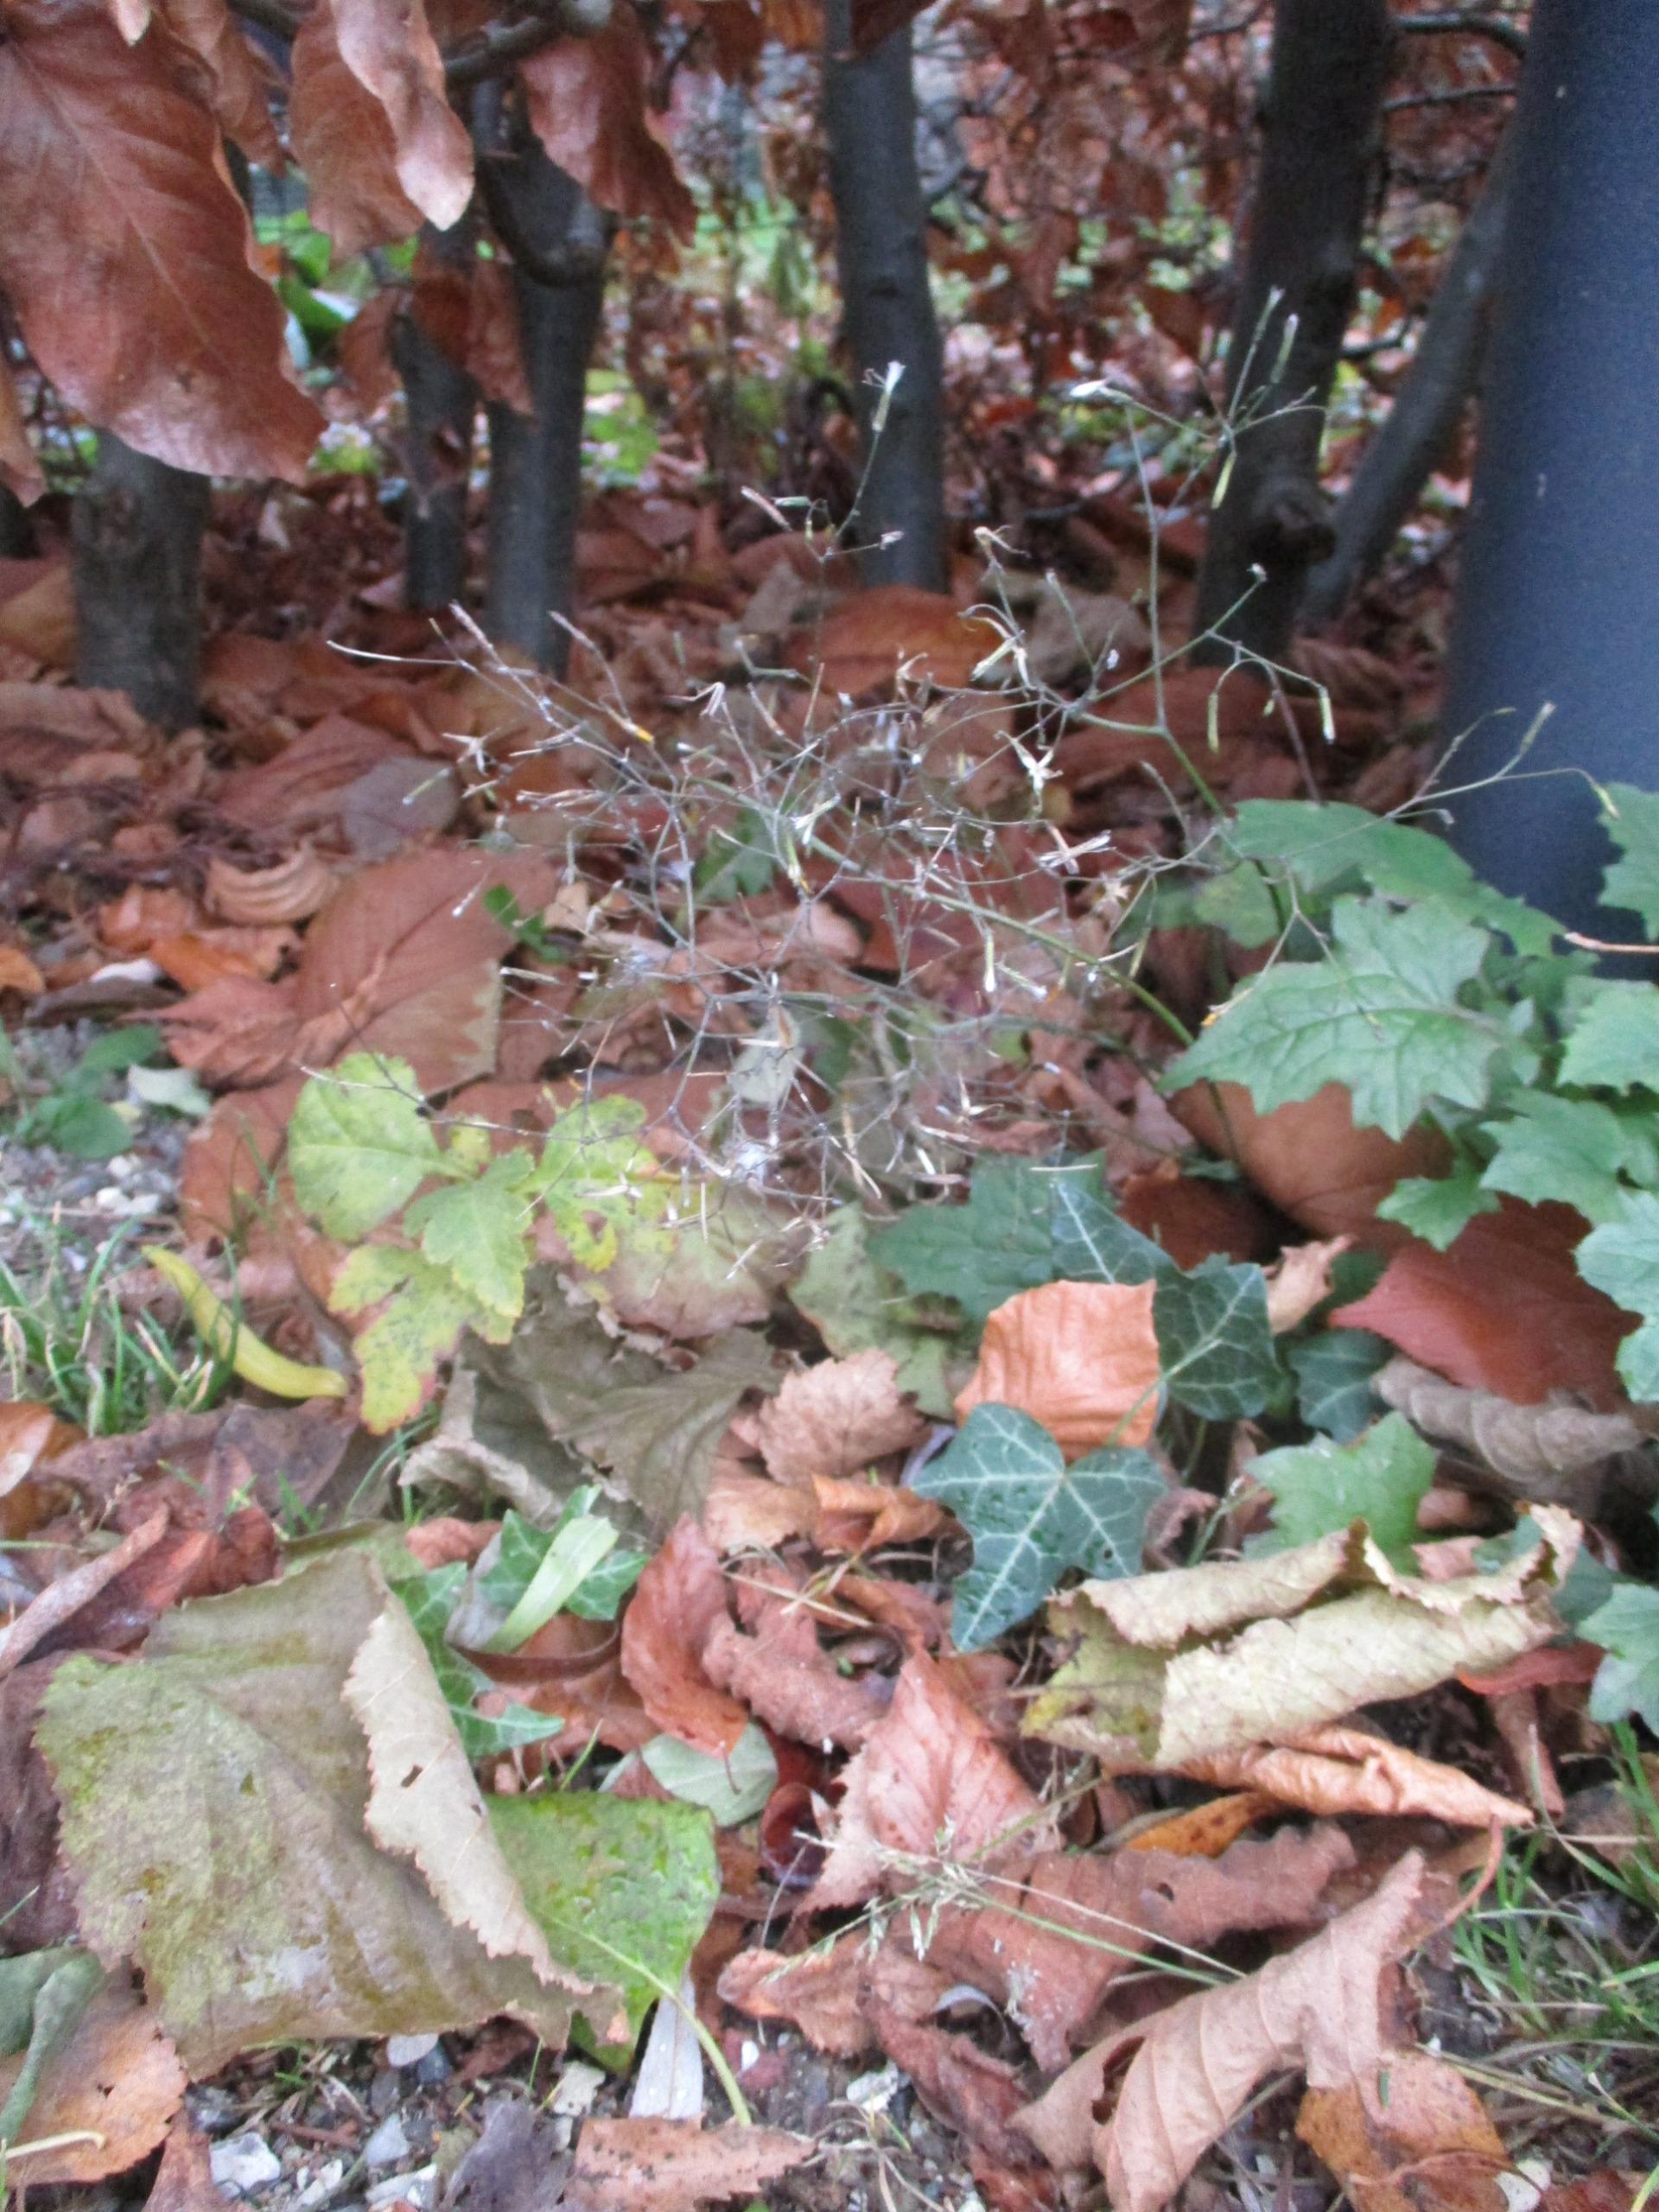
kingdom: Plantae
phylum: Tracheophyta
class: Magnoliopsida
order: Asterales
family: Asteraceae
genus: Mycelis
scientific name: Mycelis muralis
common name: Skov-salat
